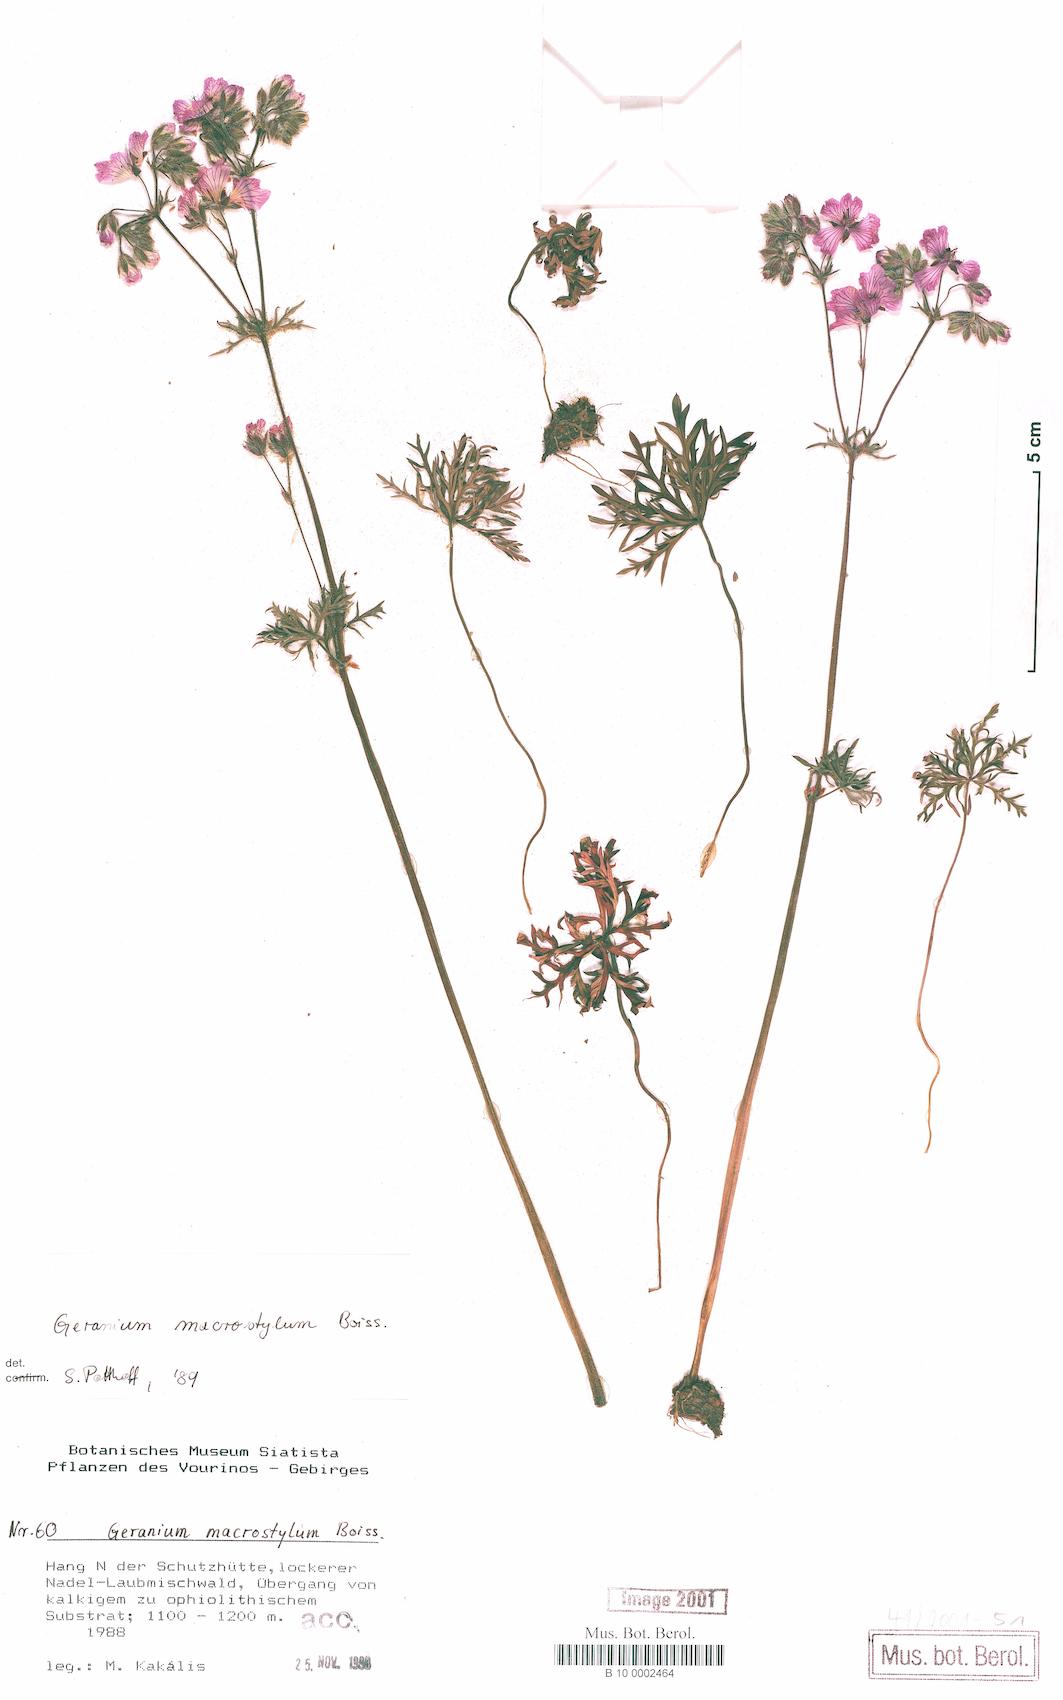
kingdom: Plantae
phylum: Tracheophyta
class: Magnoliopsida
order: Geraniales
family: Geraniaceae
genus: Geranium
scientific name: Geranium macrostylum
